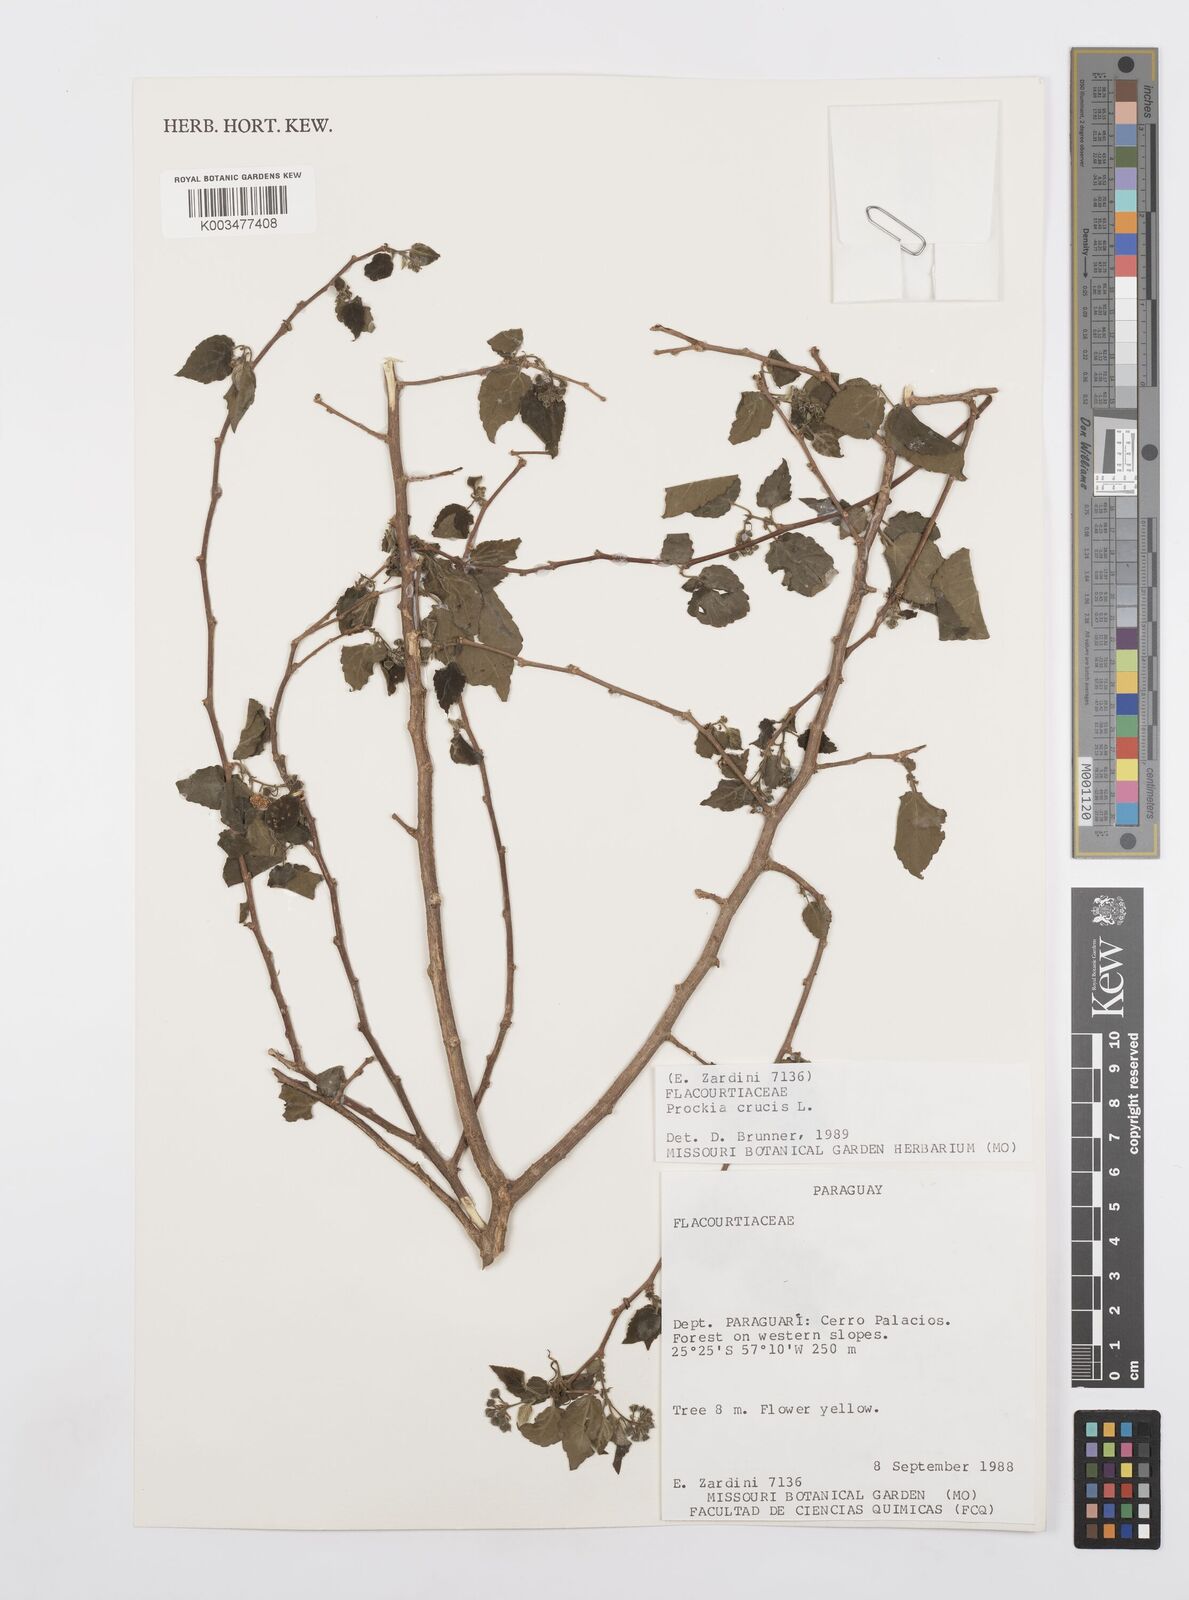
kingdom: Plantae
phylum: Tracheophyta
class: Magnoliopsida
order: Malpighiales
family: Salicaceae
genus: Prockia
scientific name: Prockia crucis
